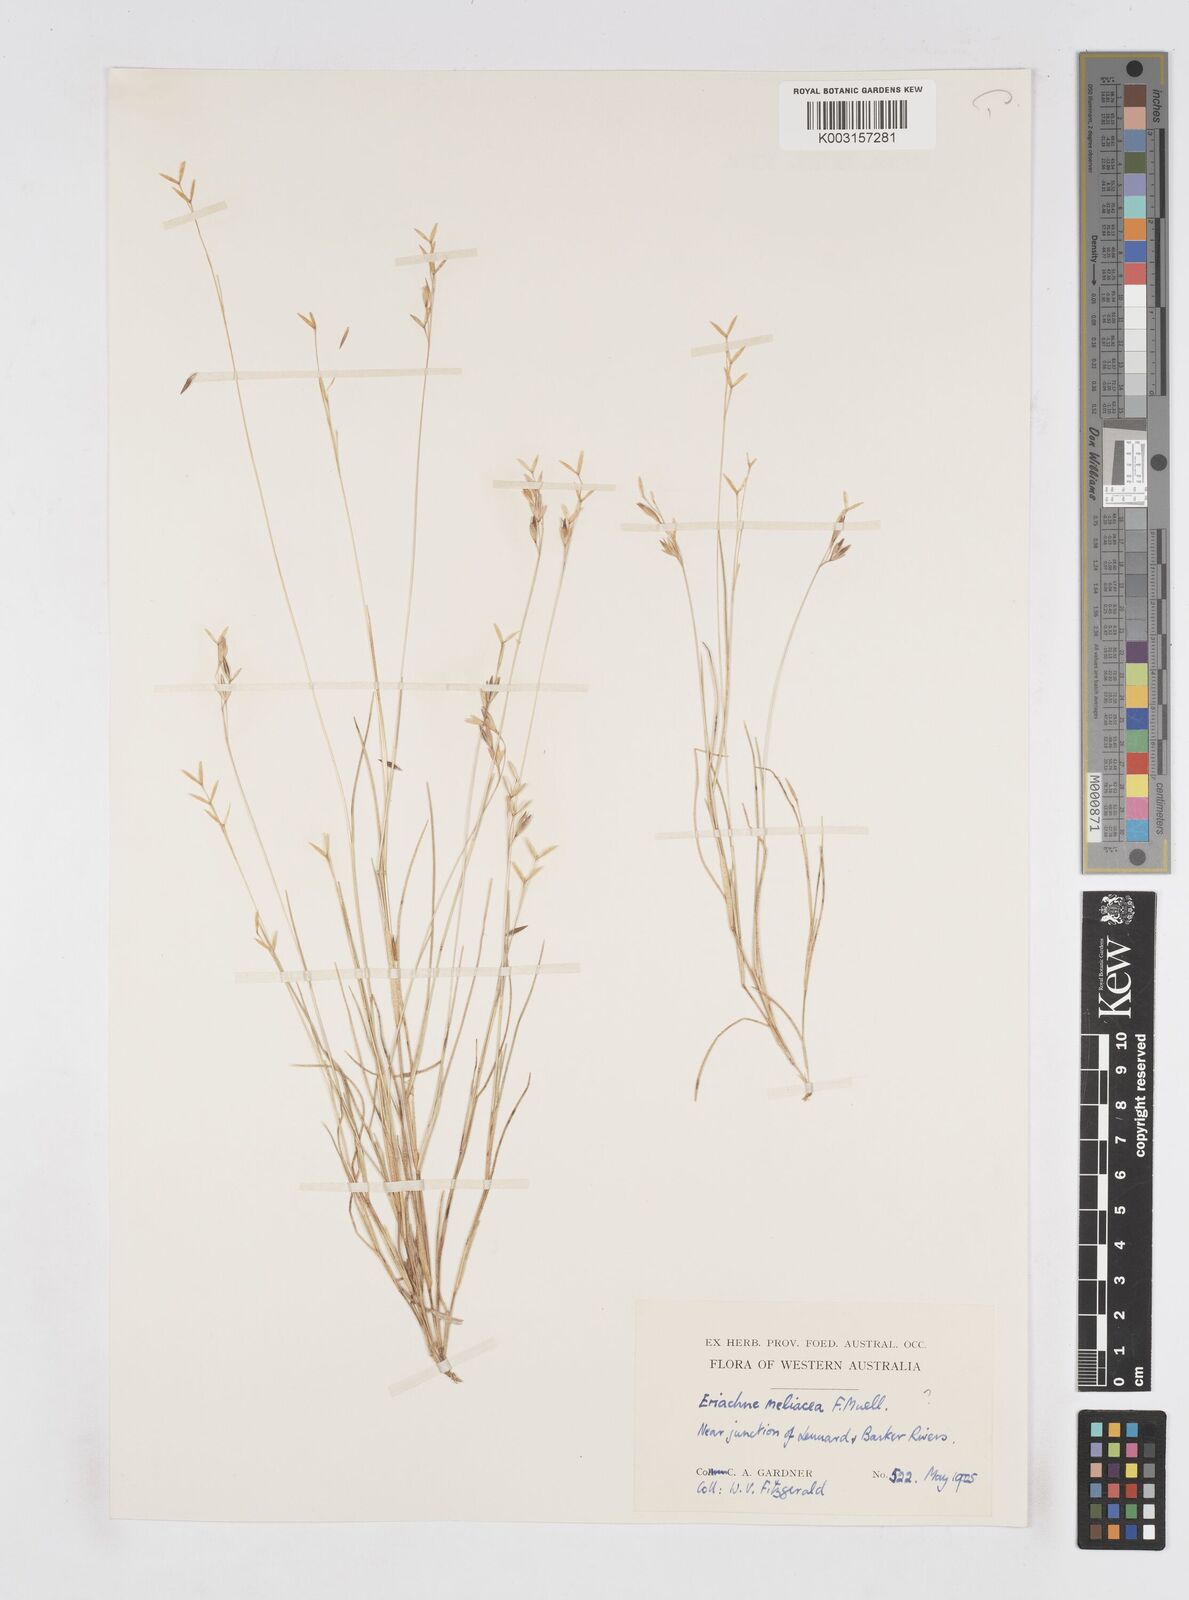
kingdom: Plantae
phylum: Tracheophyta
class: Liliopsida
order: Poales
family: Poaceae
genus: Eriachne
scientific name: Eriachne melicacea
